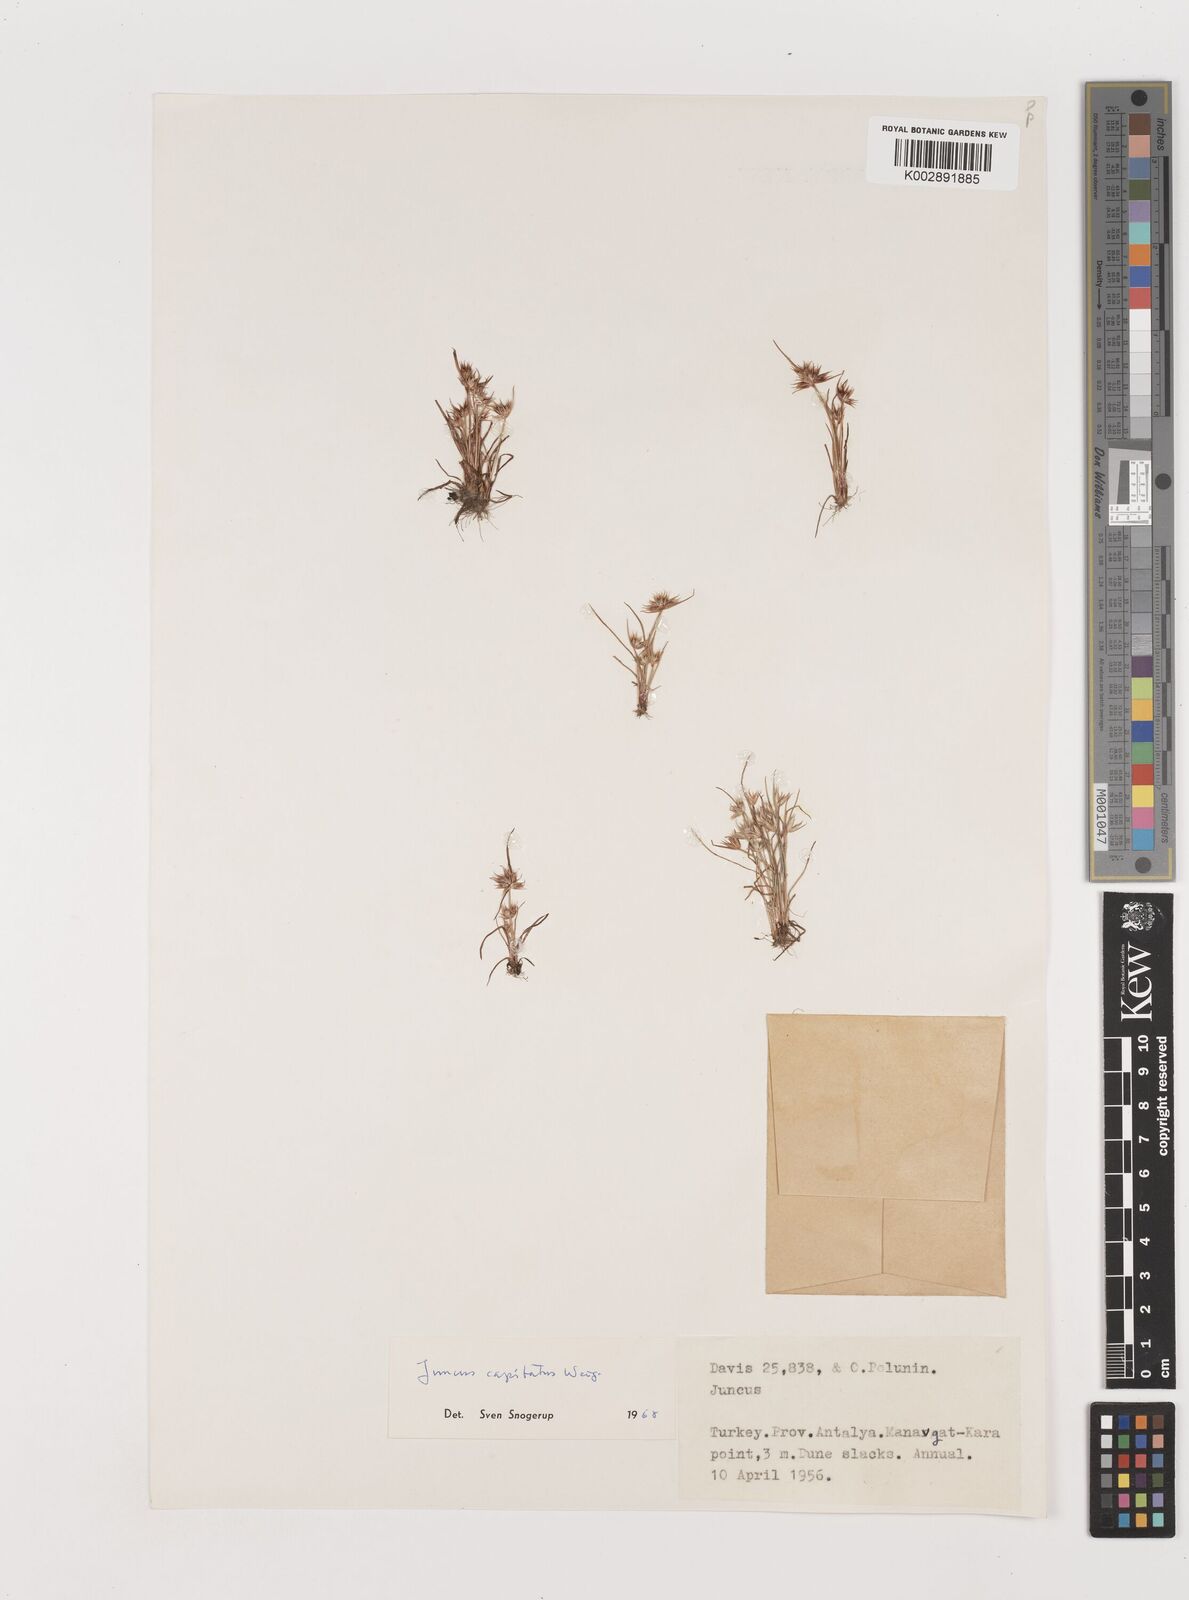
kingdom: Plantae
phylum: Tracheophyta
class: Liliopsida
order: Poales
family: Juncaceae
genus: Juncus
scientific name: Juncus capitatus
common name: Dwarf rush
